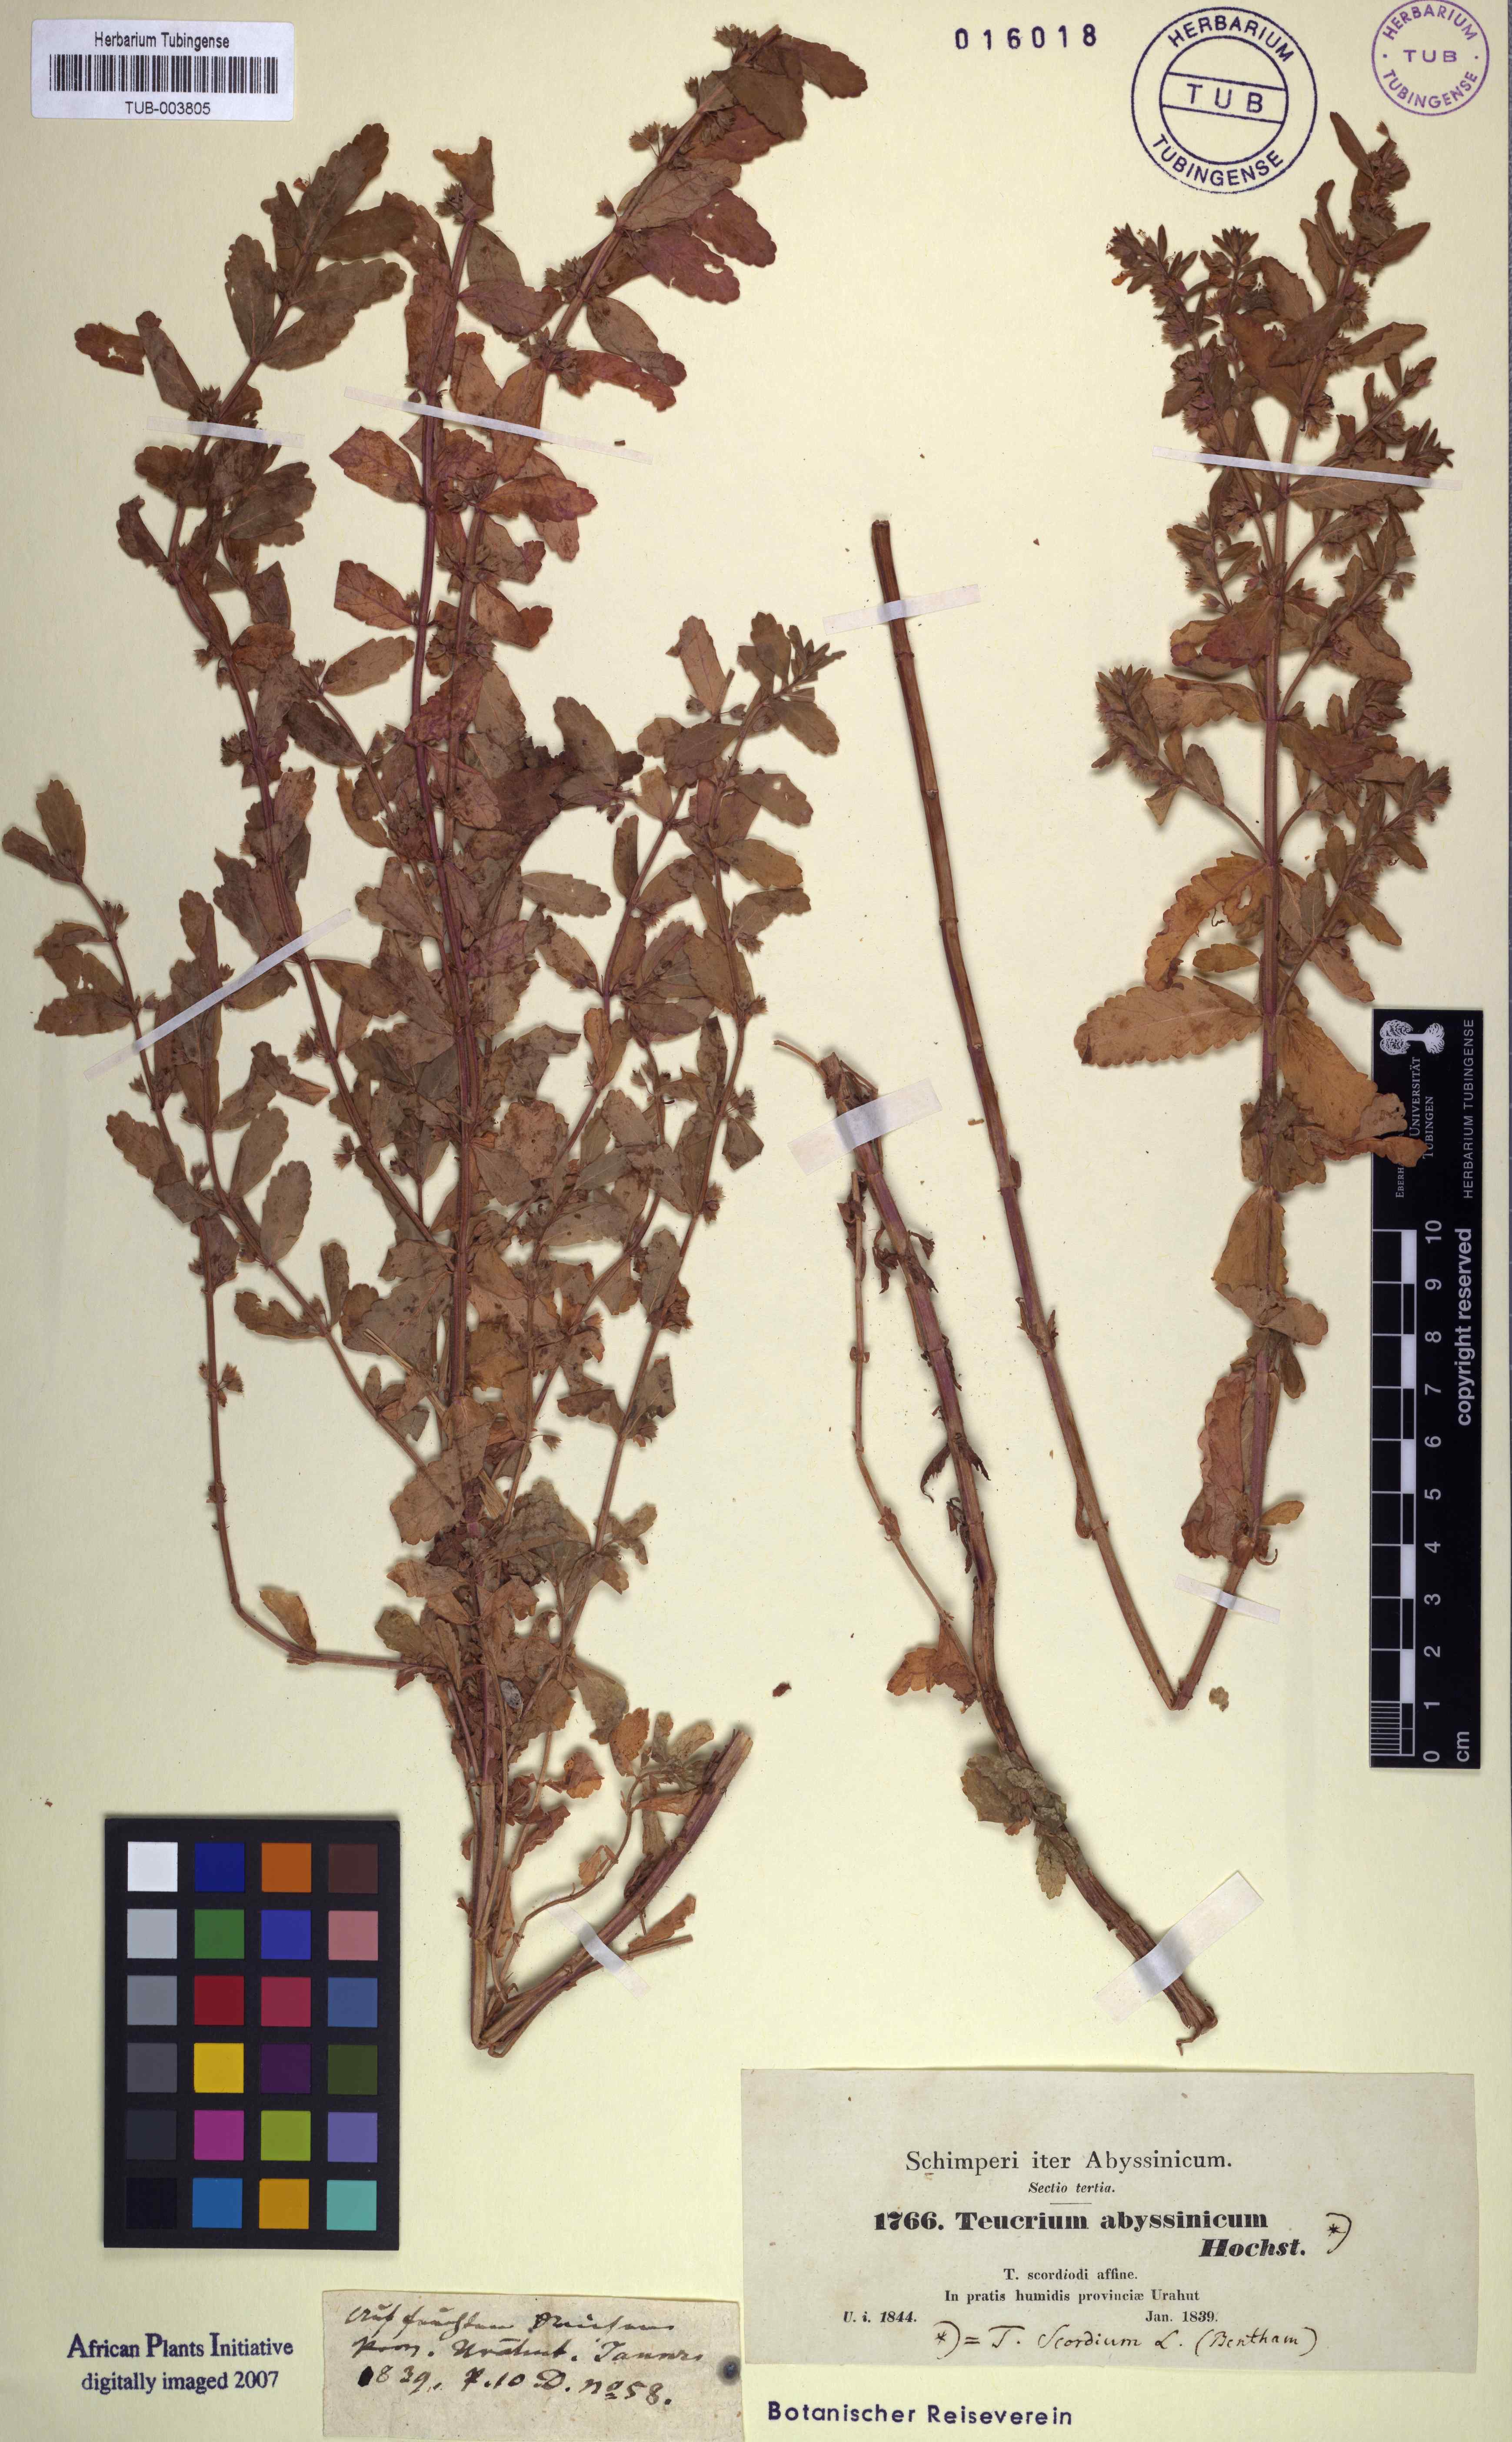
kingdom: Plantae
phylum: Tracheophyta
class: Magnoliopsida
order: Lamiales
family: Lamiaceae
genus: Teucrium
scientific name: Teucrium scordium
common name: Water germander
